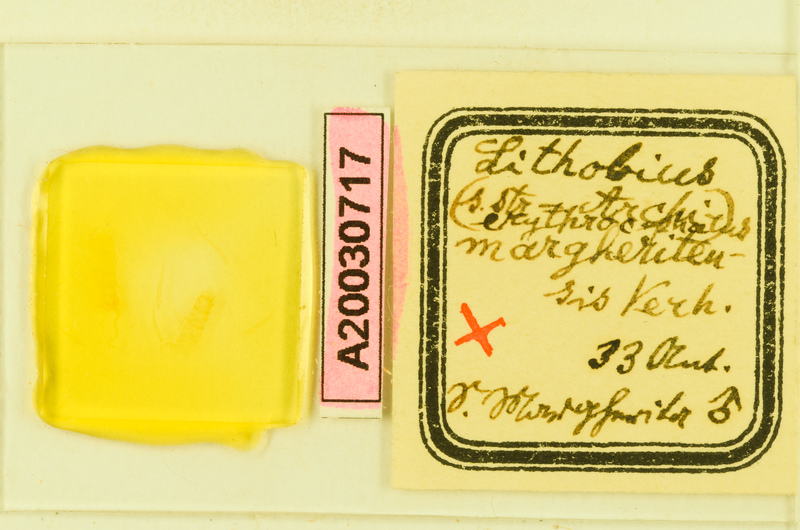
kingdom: Animalia
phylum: Arthropoda
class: Chilopoda
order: Lithobiomorpha
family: Lithobiidae
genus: Lithobius
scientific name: Lithobius erythrocephalus
